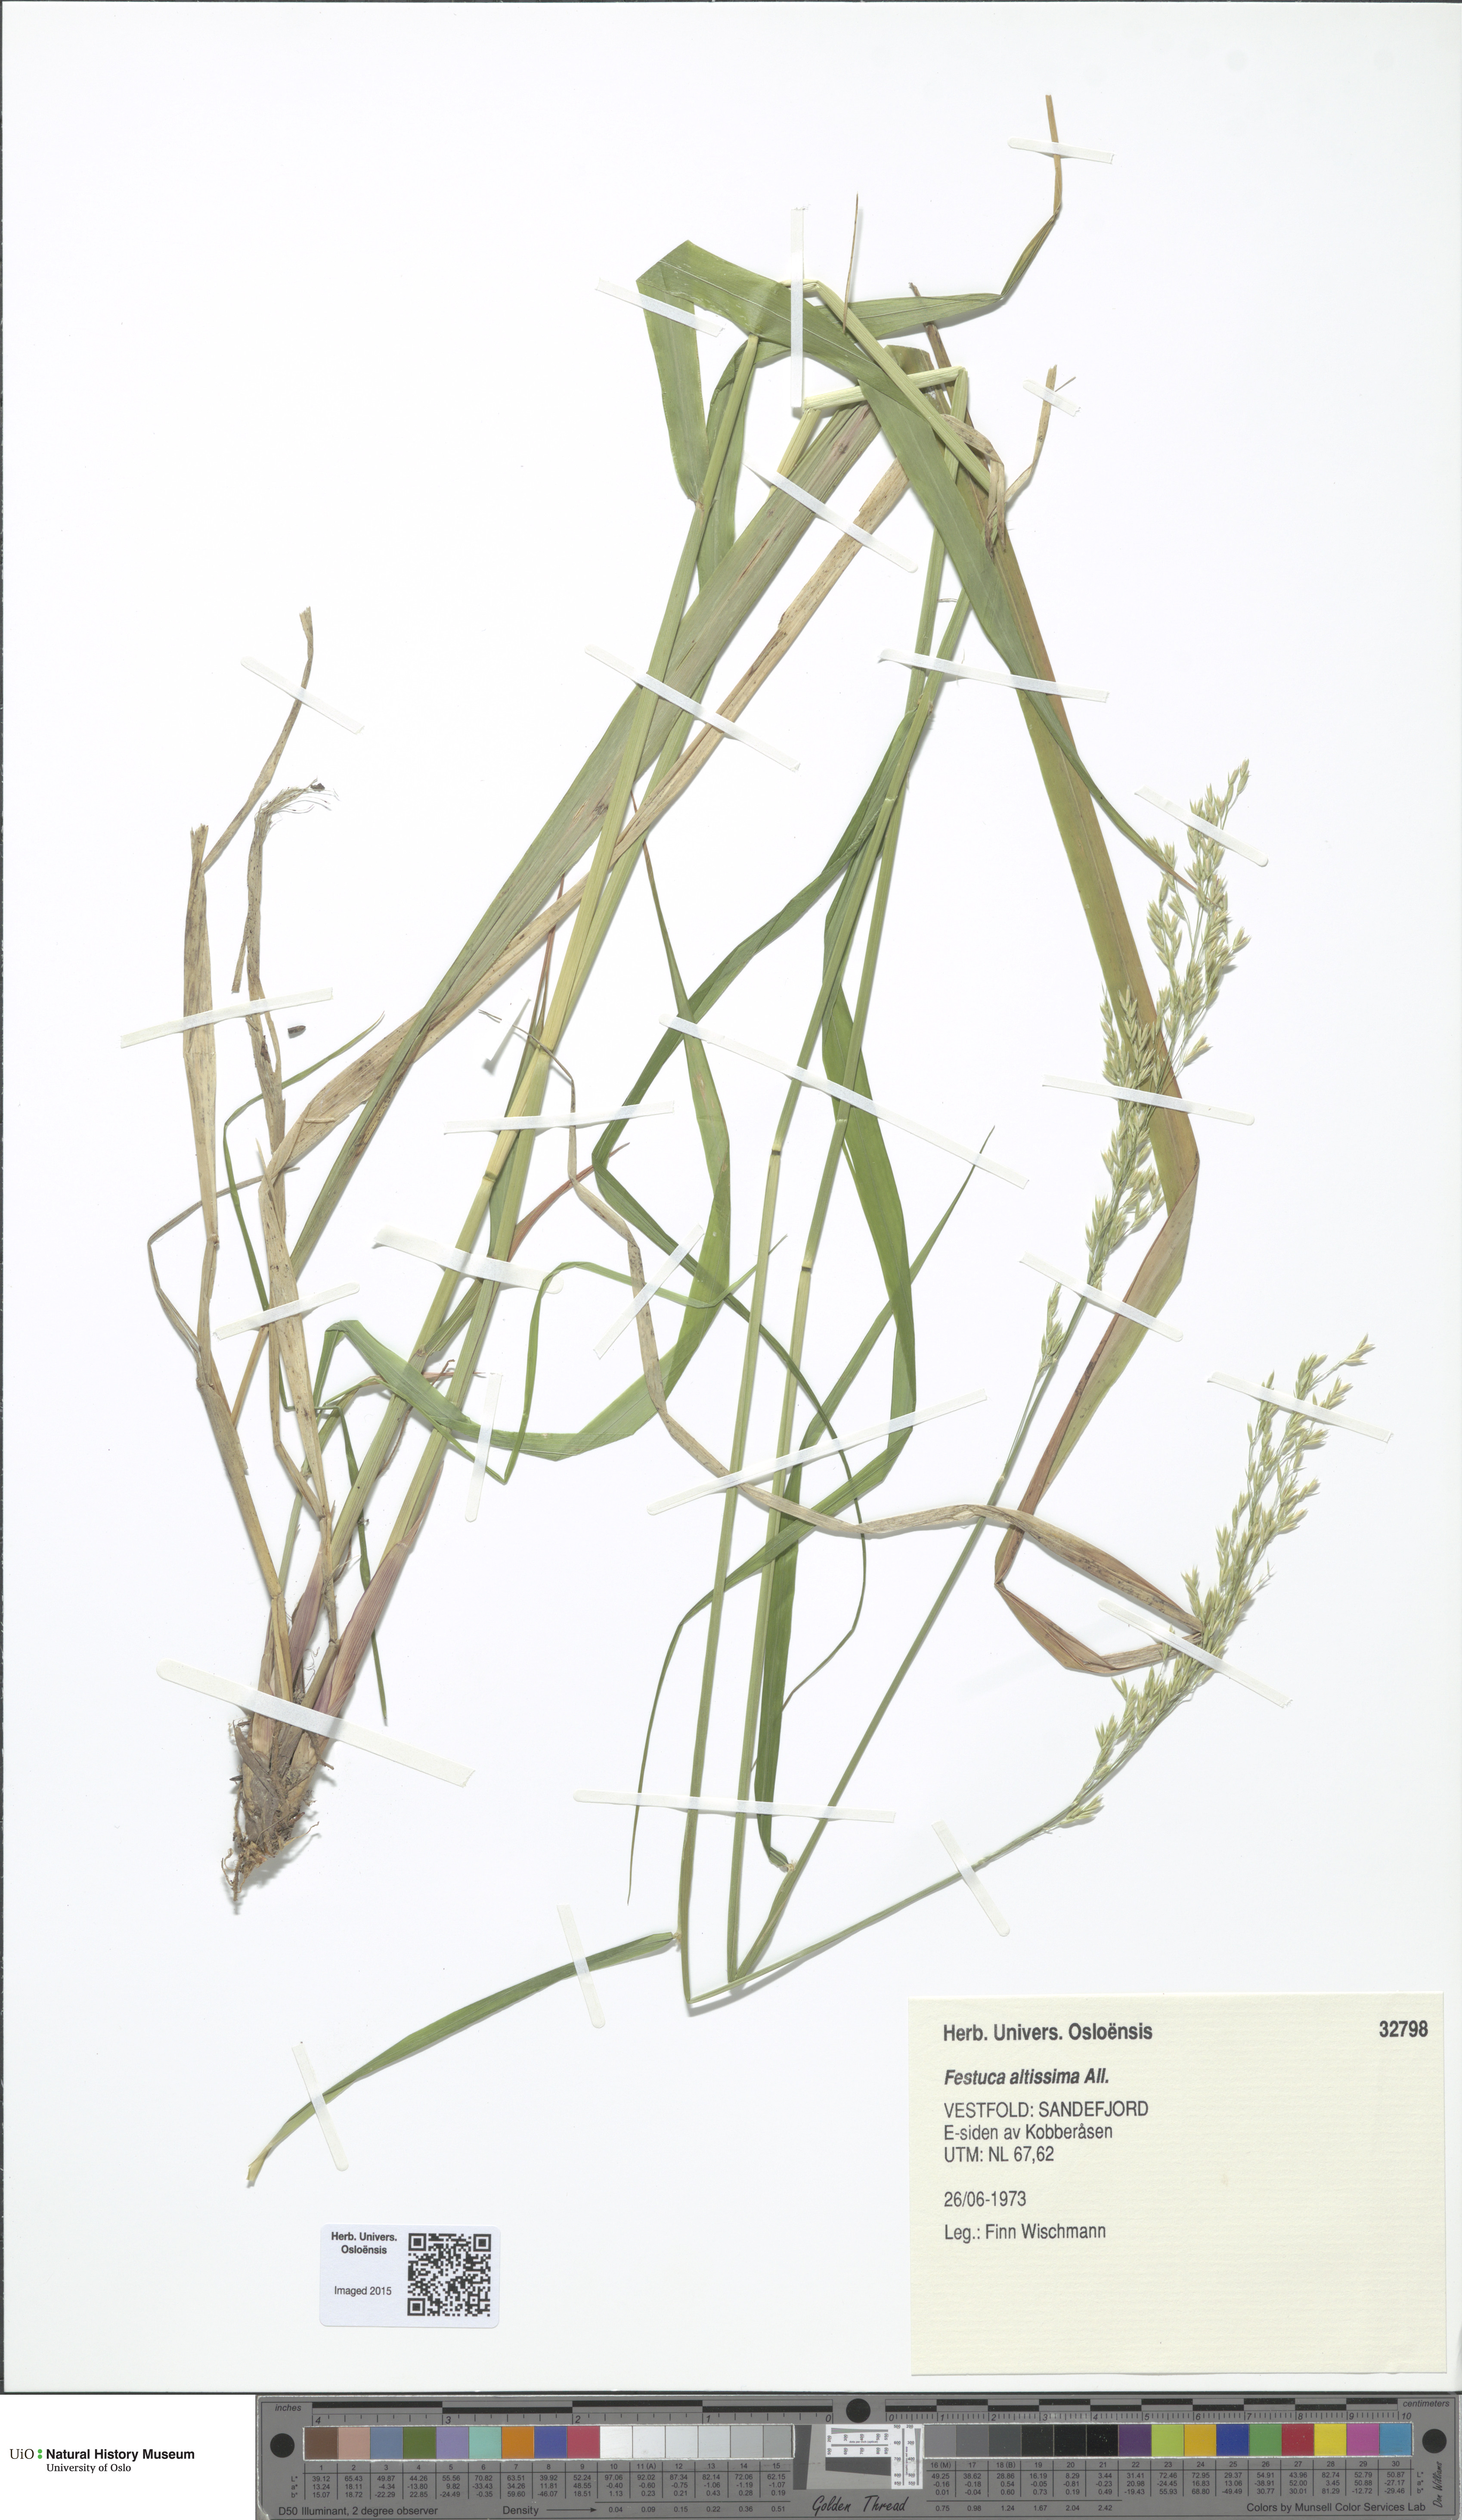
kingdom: Plantae
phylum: Tracheophyta
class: Liliopsida
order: Poales
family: Poaceae
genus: Festuca
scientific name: Festuca altissima
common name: Wood fescue
